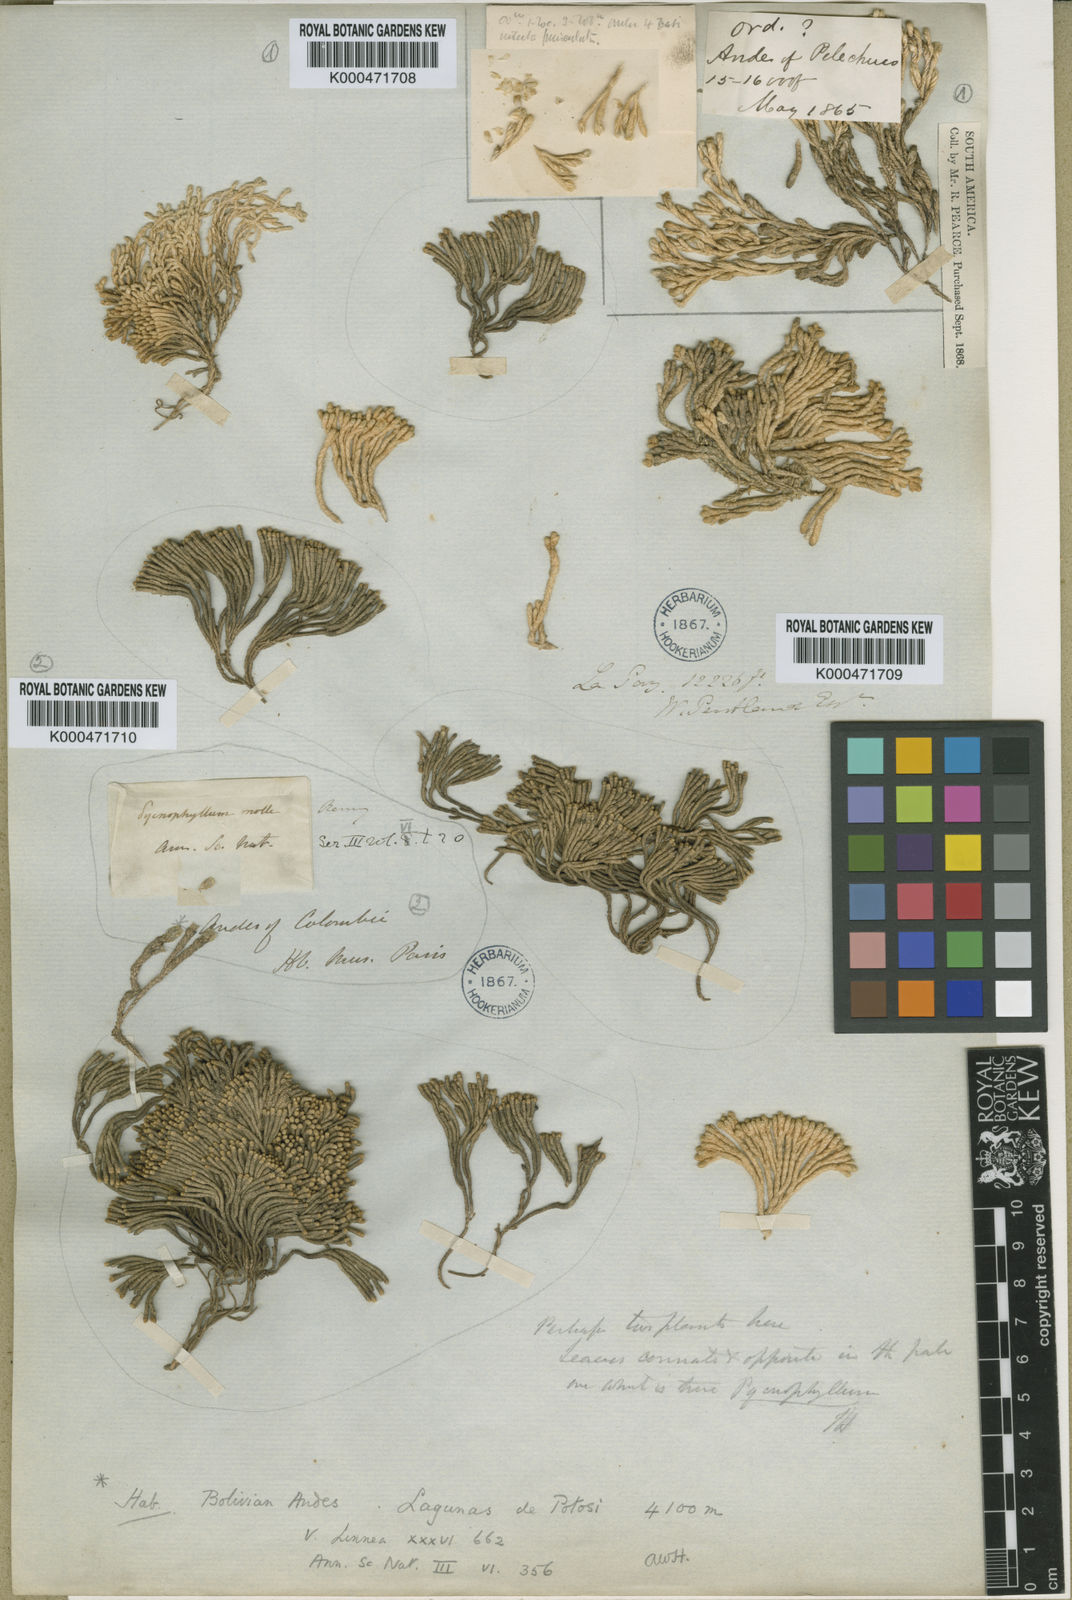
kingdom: Plantae
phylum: Tracheophyta
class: Magnoliopsida
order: Caryophyllales
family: Caryophyllaceae
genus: Pycnophyllum
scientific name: Pycnophyllum molle
